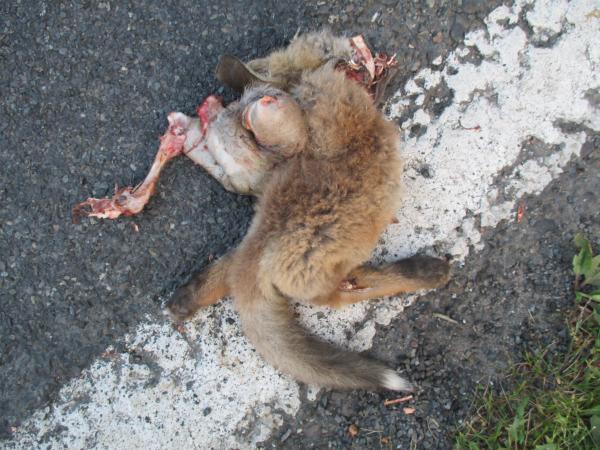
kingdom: Animalia
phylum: Chordata
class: Mammalia
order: Carnivora
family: Canidae
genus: Vulpes
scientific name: Vulpes vulpes
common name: Red fox
